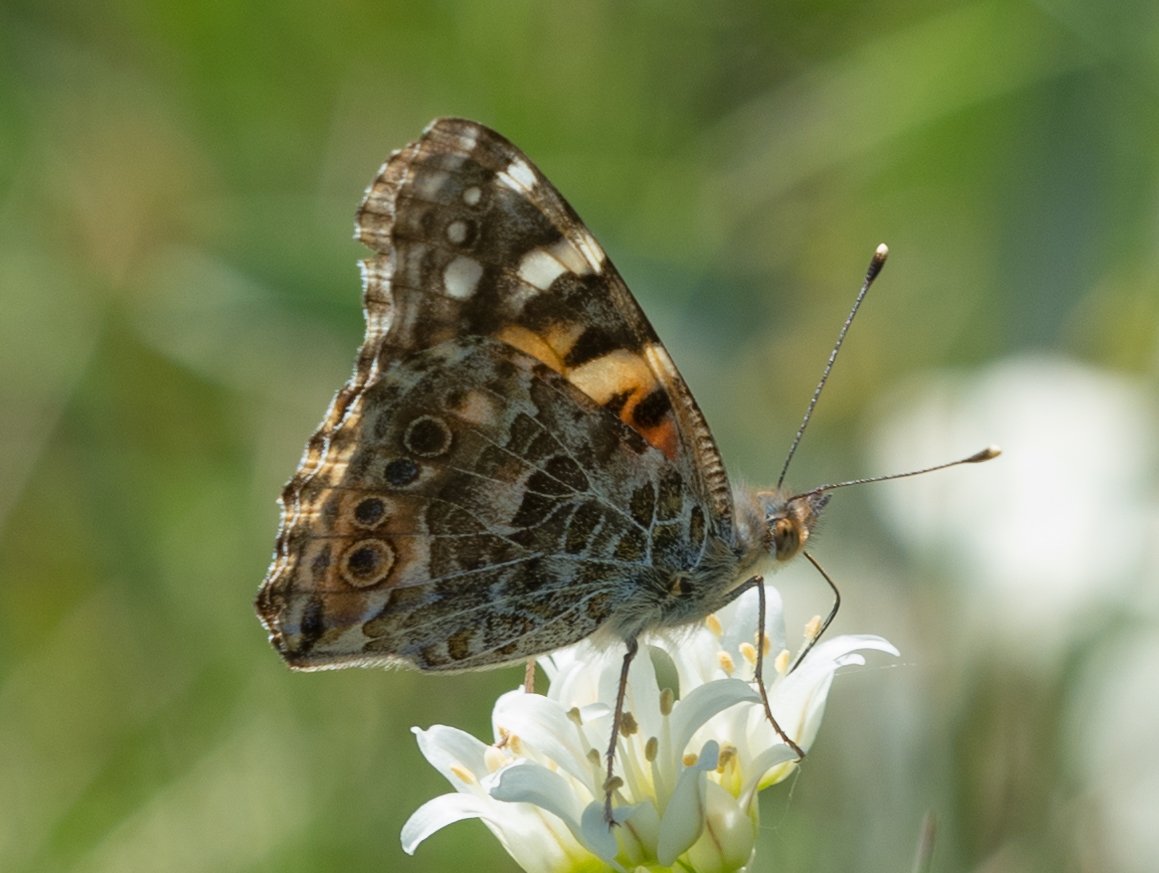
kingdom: Animalia
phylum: Arthropoda
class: Insecta
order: Lepidoptera
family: Nymphalidae
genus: Vanessa
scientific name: Vanessa cardui
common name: Painted Lady
